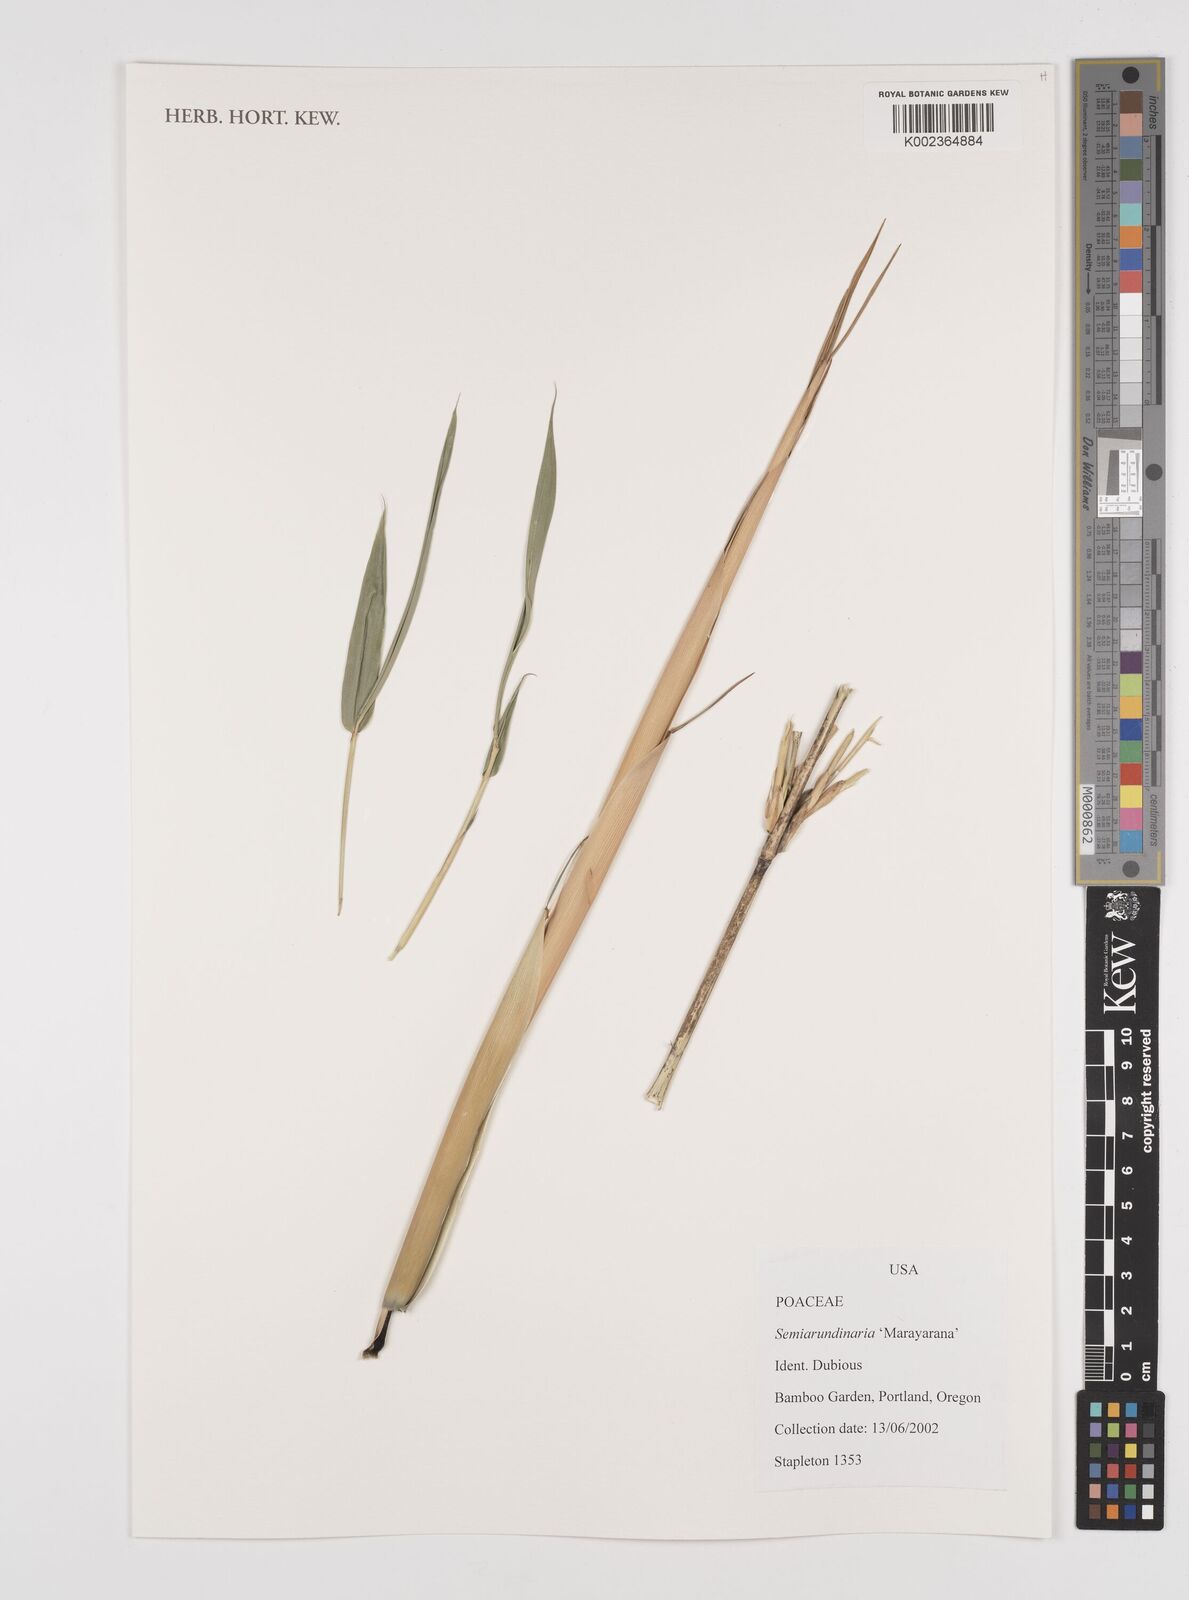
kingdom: Plantae
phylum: Tracheophyta
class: Liliopsida
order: Poales
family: Poaceae
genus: Semiarundinaria
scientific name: Semiarundinaria
